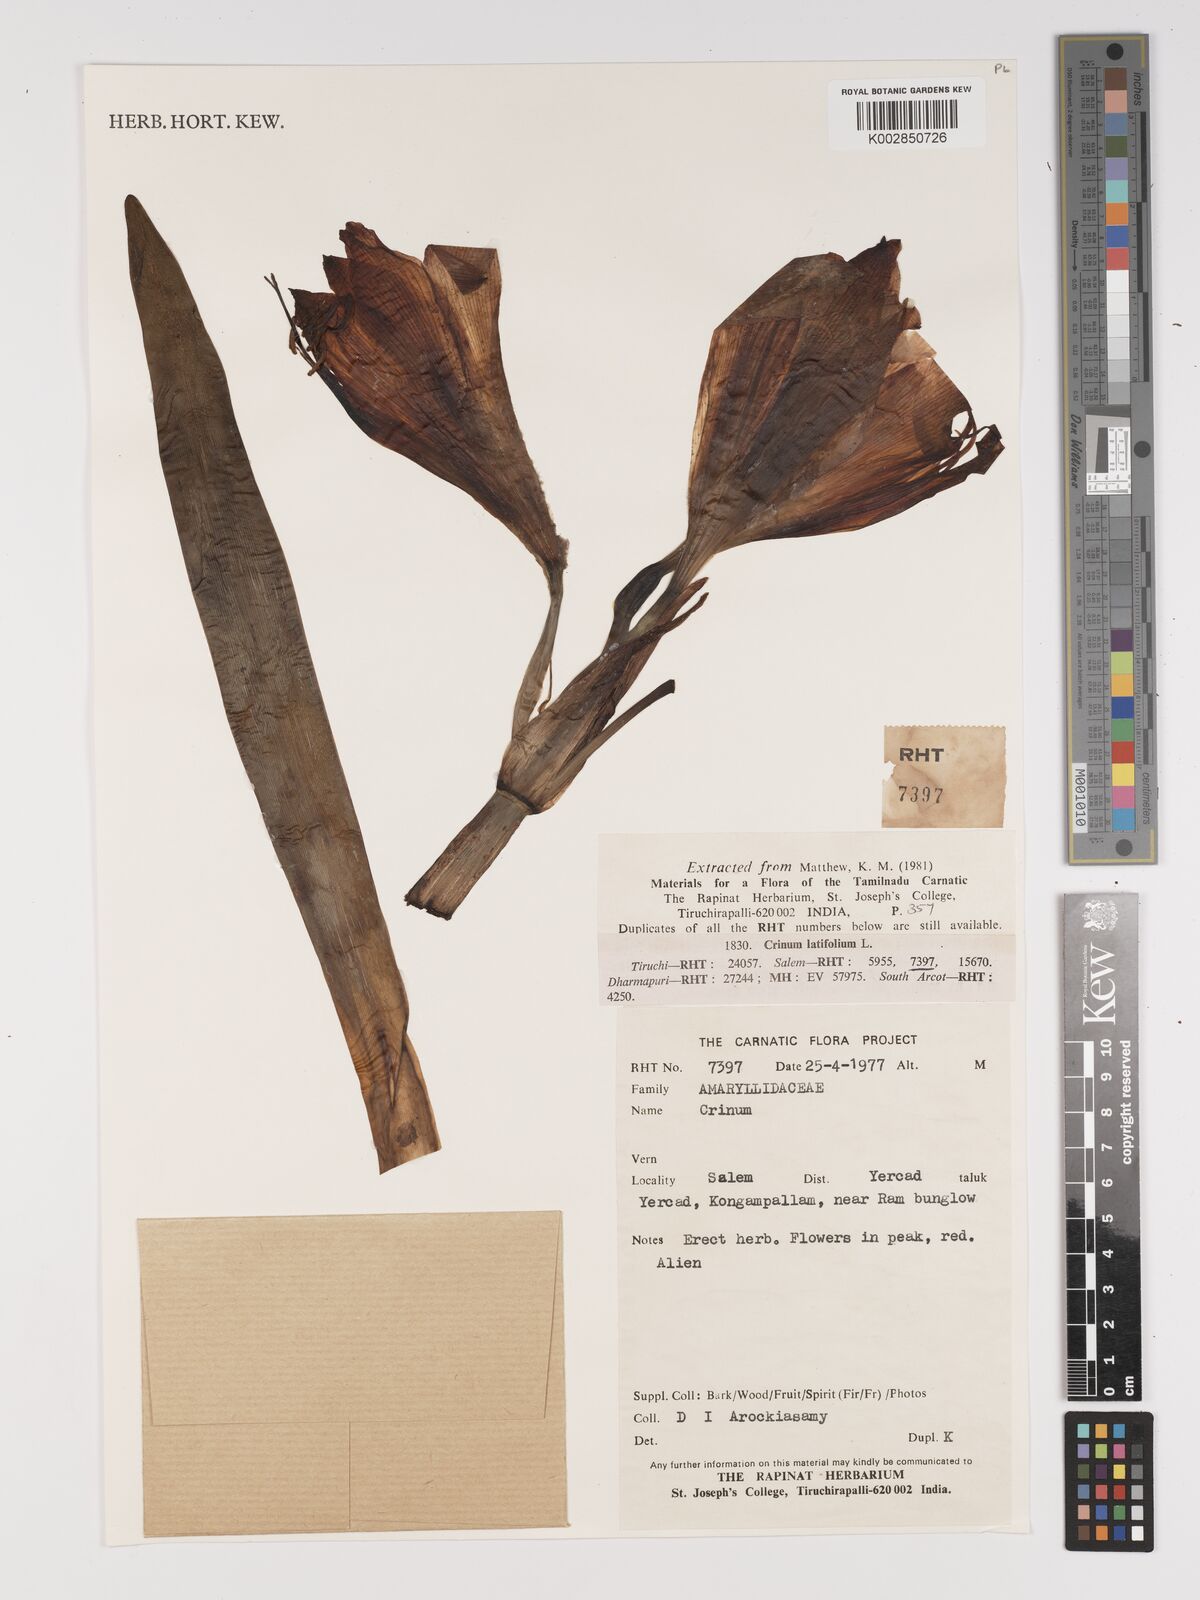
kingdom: Plantae
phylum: Tracheophyta
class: Liliopsida
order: Asparagales
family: Amaryllidaceae
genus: Crinum
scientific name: Crinum
